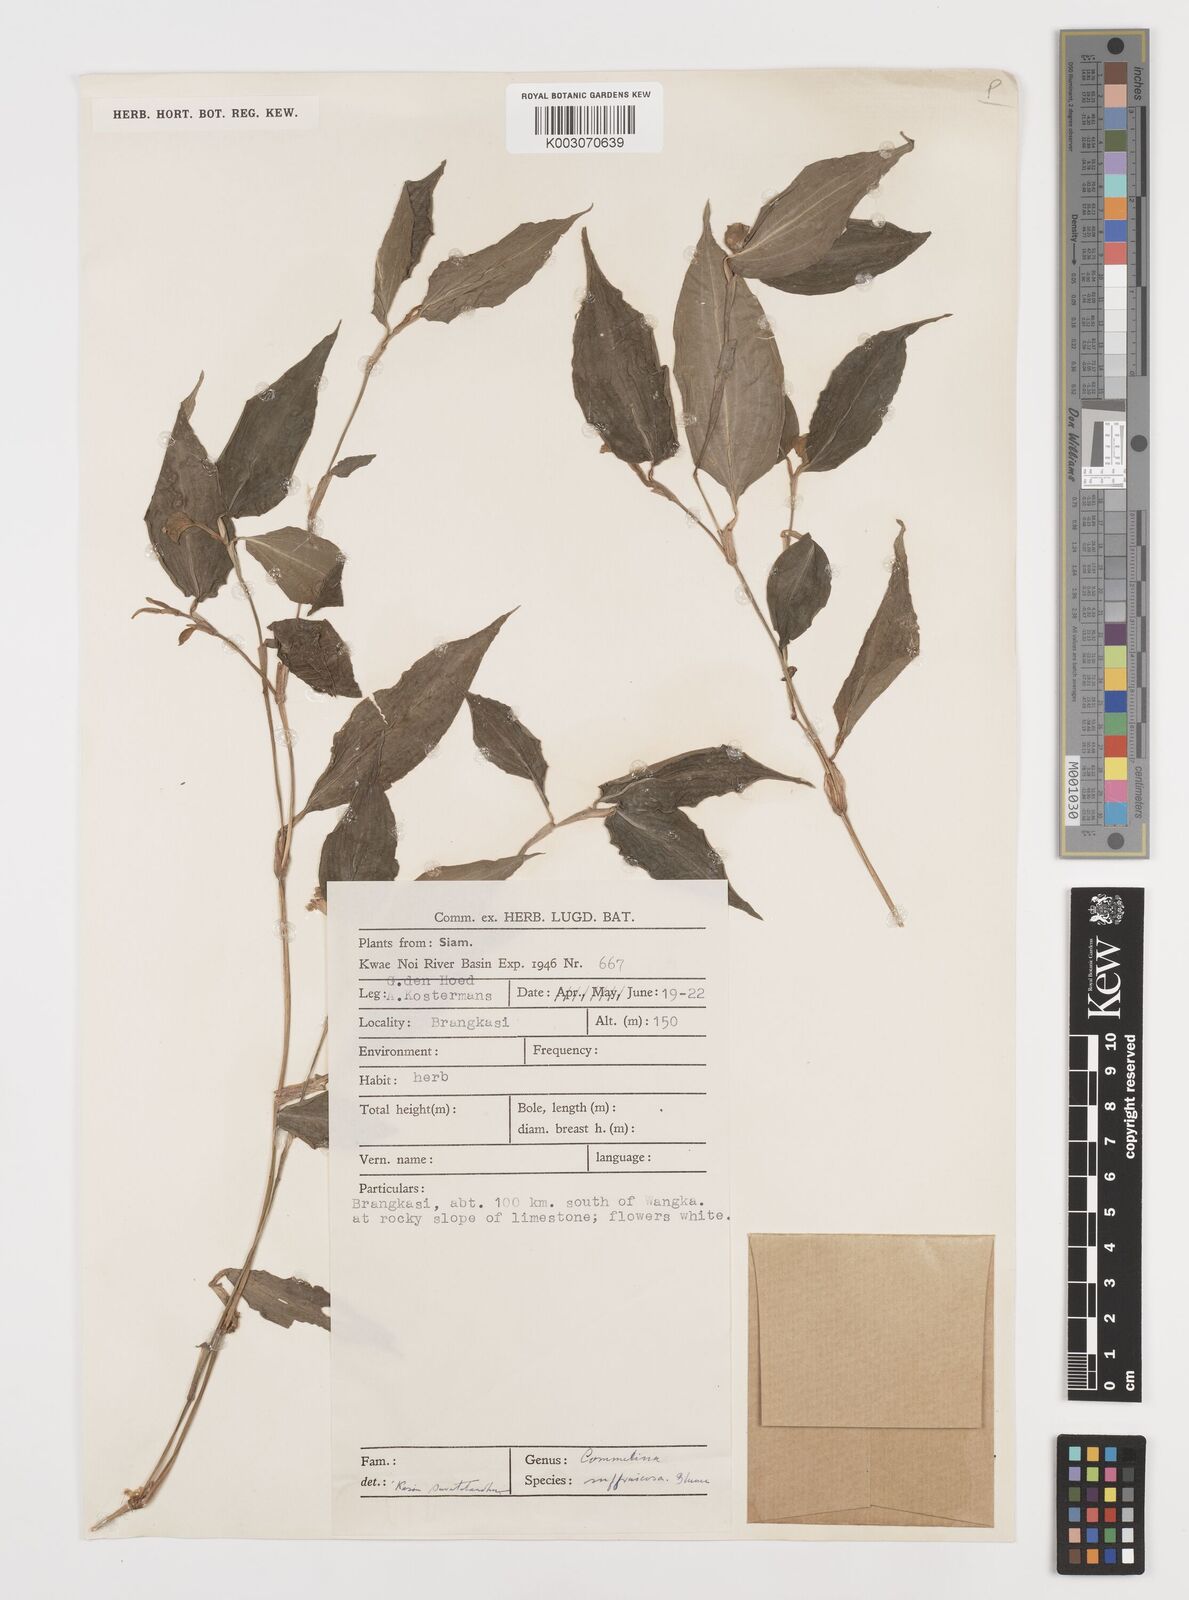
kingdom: Plantae
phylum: Tracheophyta
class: Liliopsida
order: Commelinales
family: Commelinaceae
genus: Commelina
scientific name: Commelina suffruticosa
